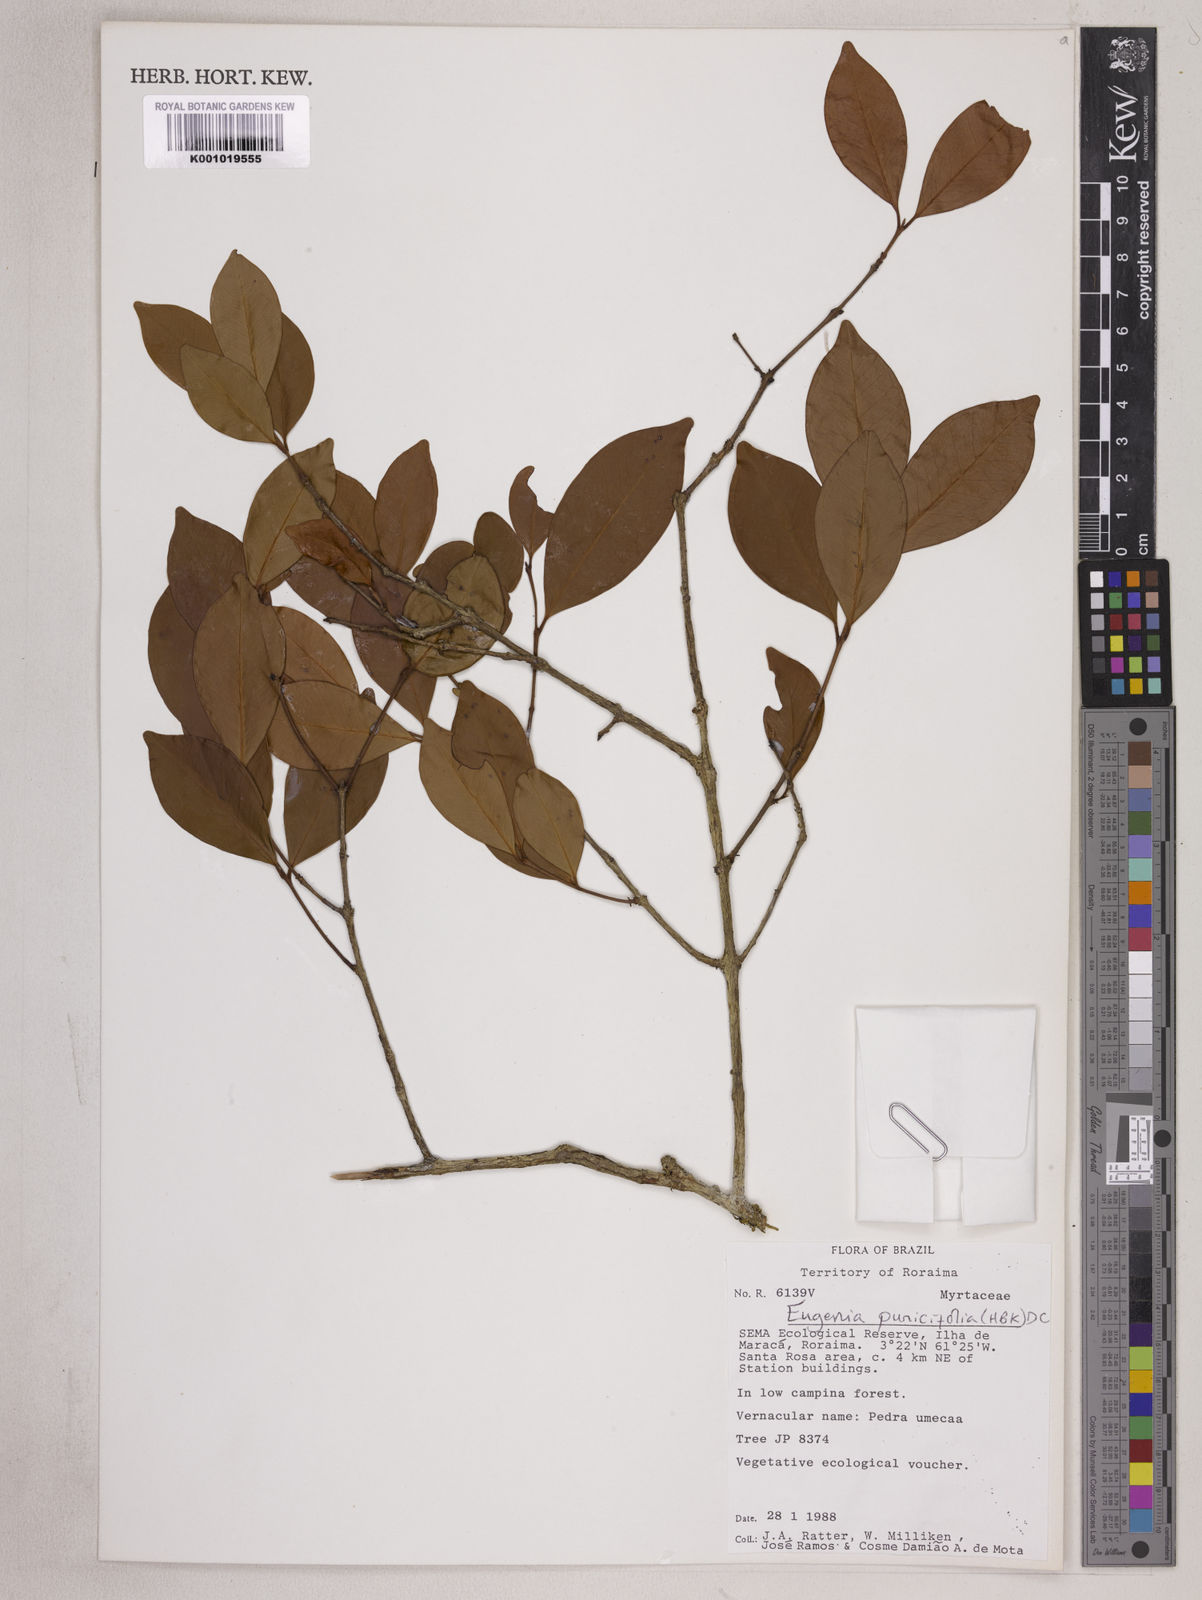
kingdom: Plantae
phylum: Tracheophyta
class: Magnoliopsida
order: Myrtales
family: Myrtaceae
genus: Eugenia
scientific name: Eugenia punicifolia
